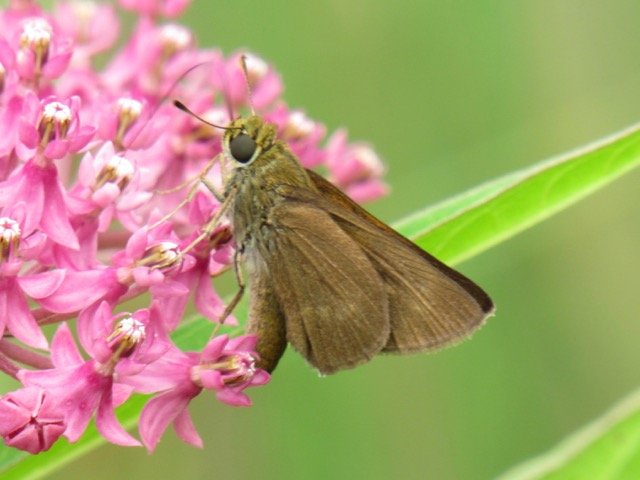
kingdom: Animalia
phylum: Arthropoda
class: Insecta
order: Lepidoptera
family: Hesperiidae
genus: Polites
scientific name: Polites egeremet
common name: Northern Broken-Dash
